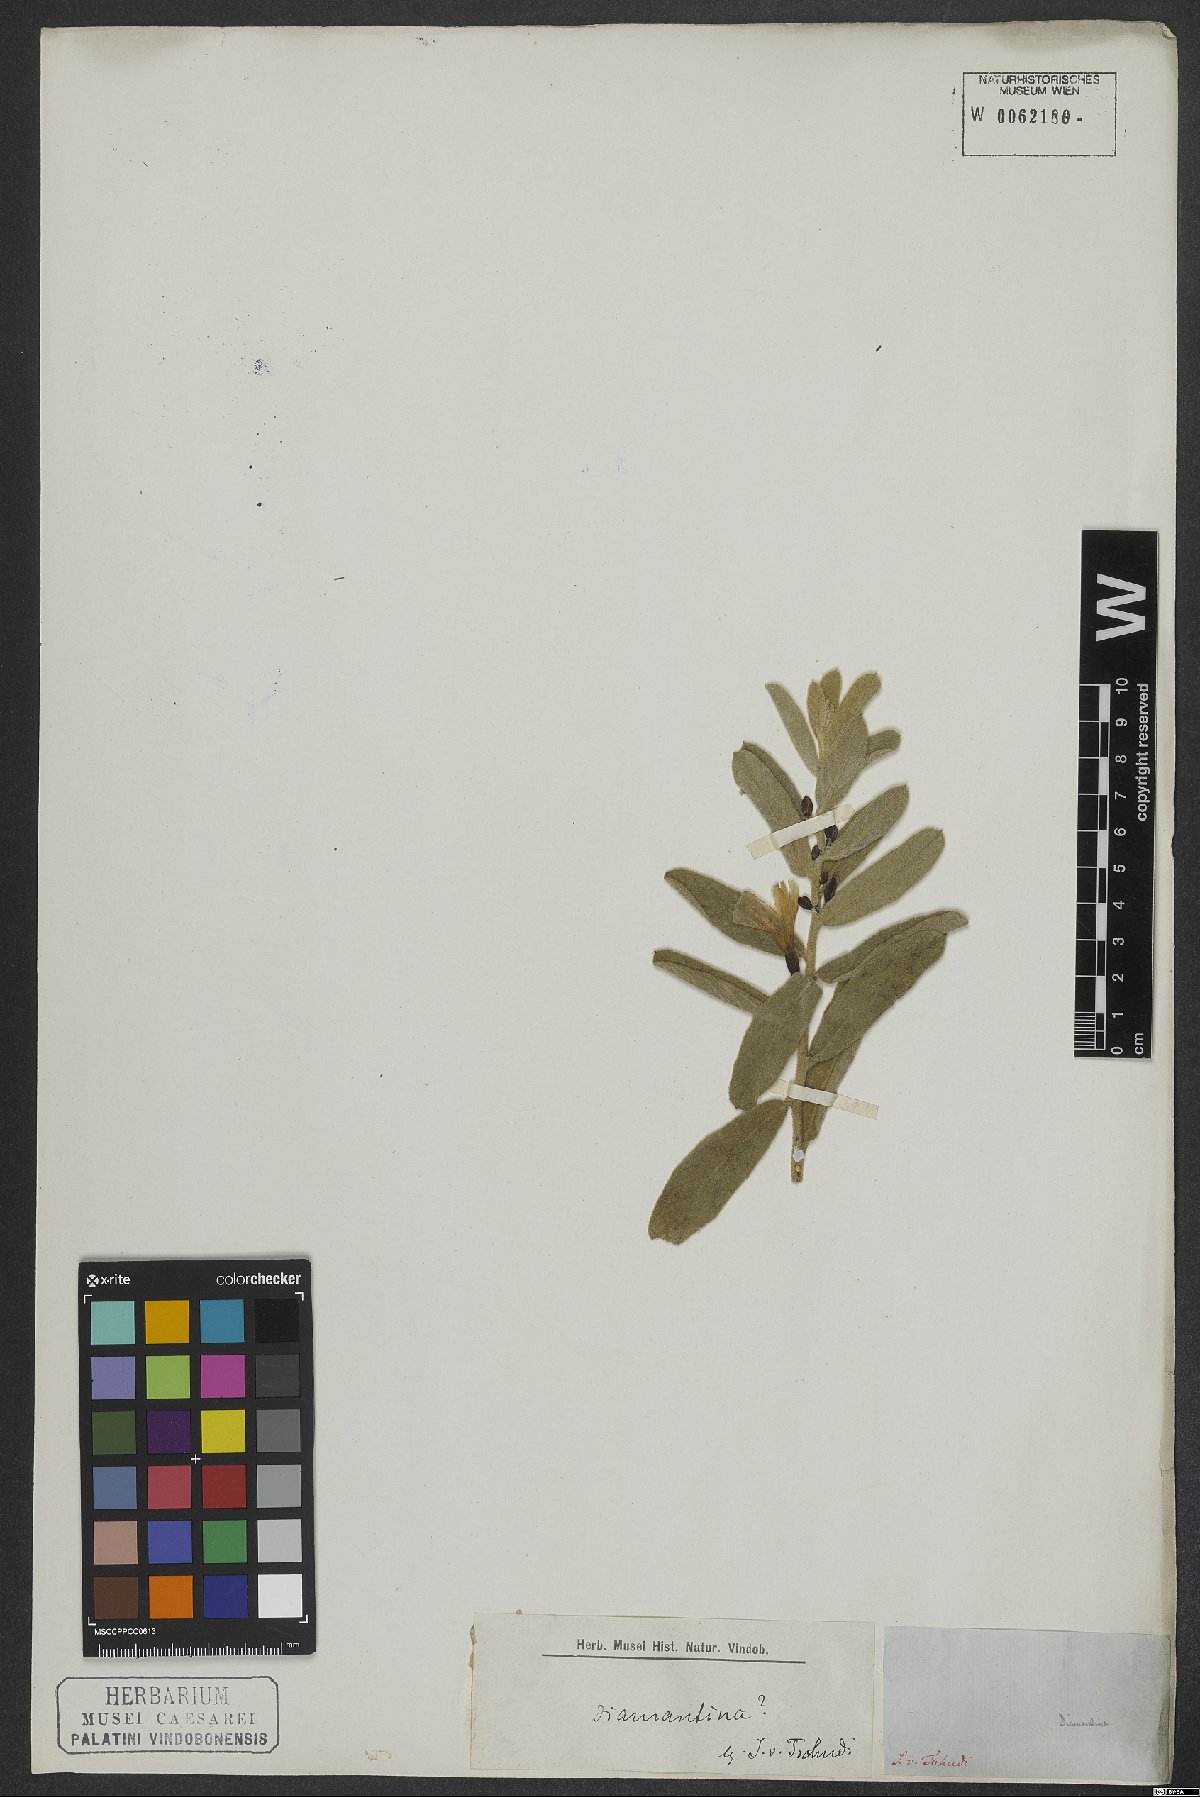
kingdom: Plantae
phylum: Tracheophyta
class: Magnoliopsida
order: Solanales
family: Convolvulaceae
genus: Distimake
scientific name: Distimake tomentosus
